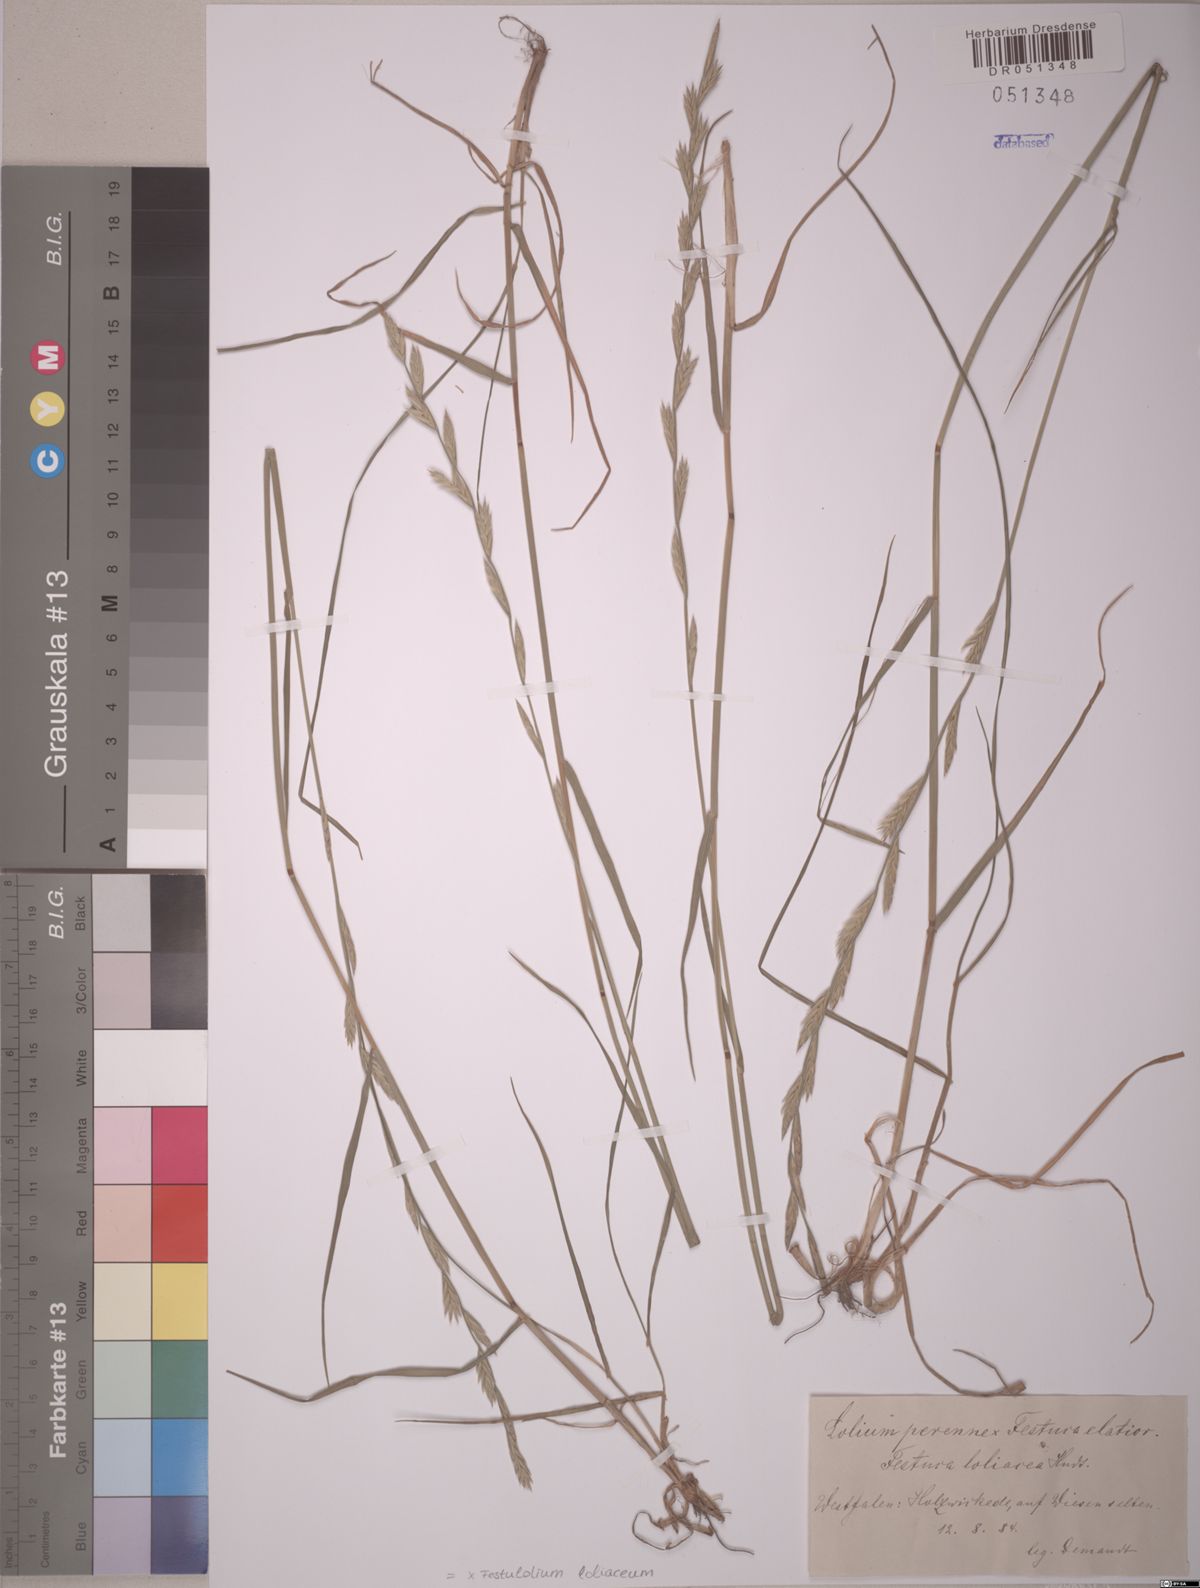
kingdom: Plantae
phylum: Tracheophyta
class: Liliopsida
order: Poales
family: Poaceae
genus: Lolium
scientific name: Lolium elongatum
